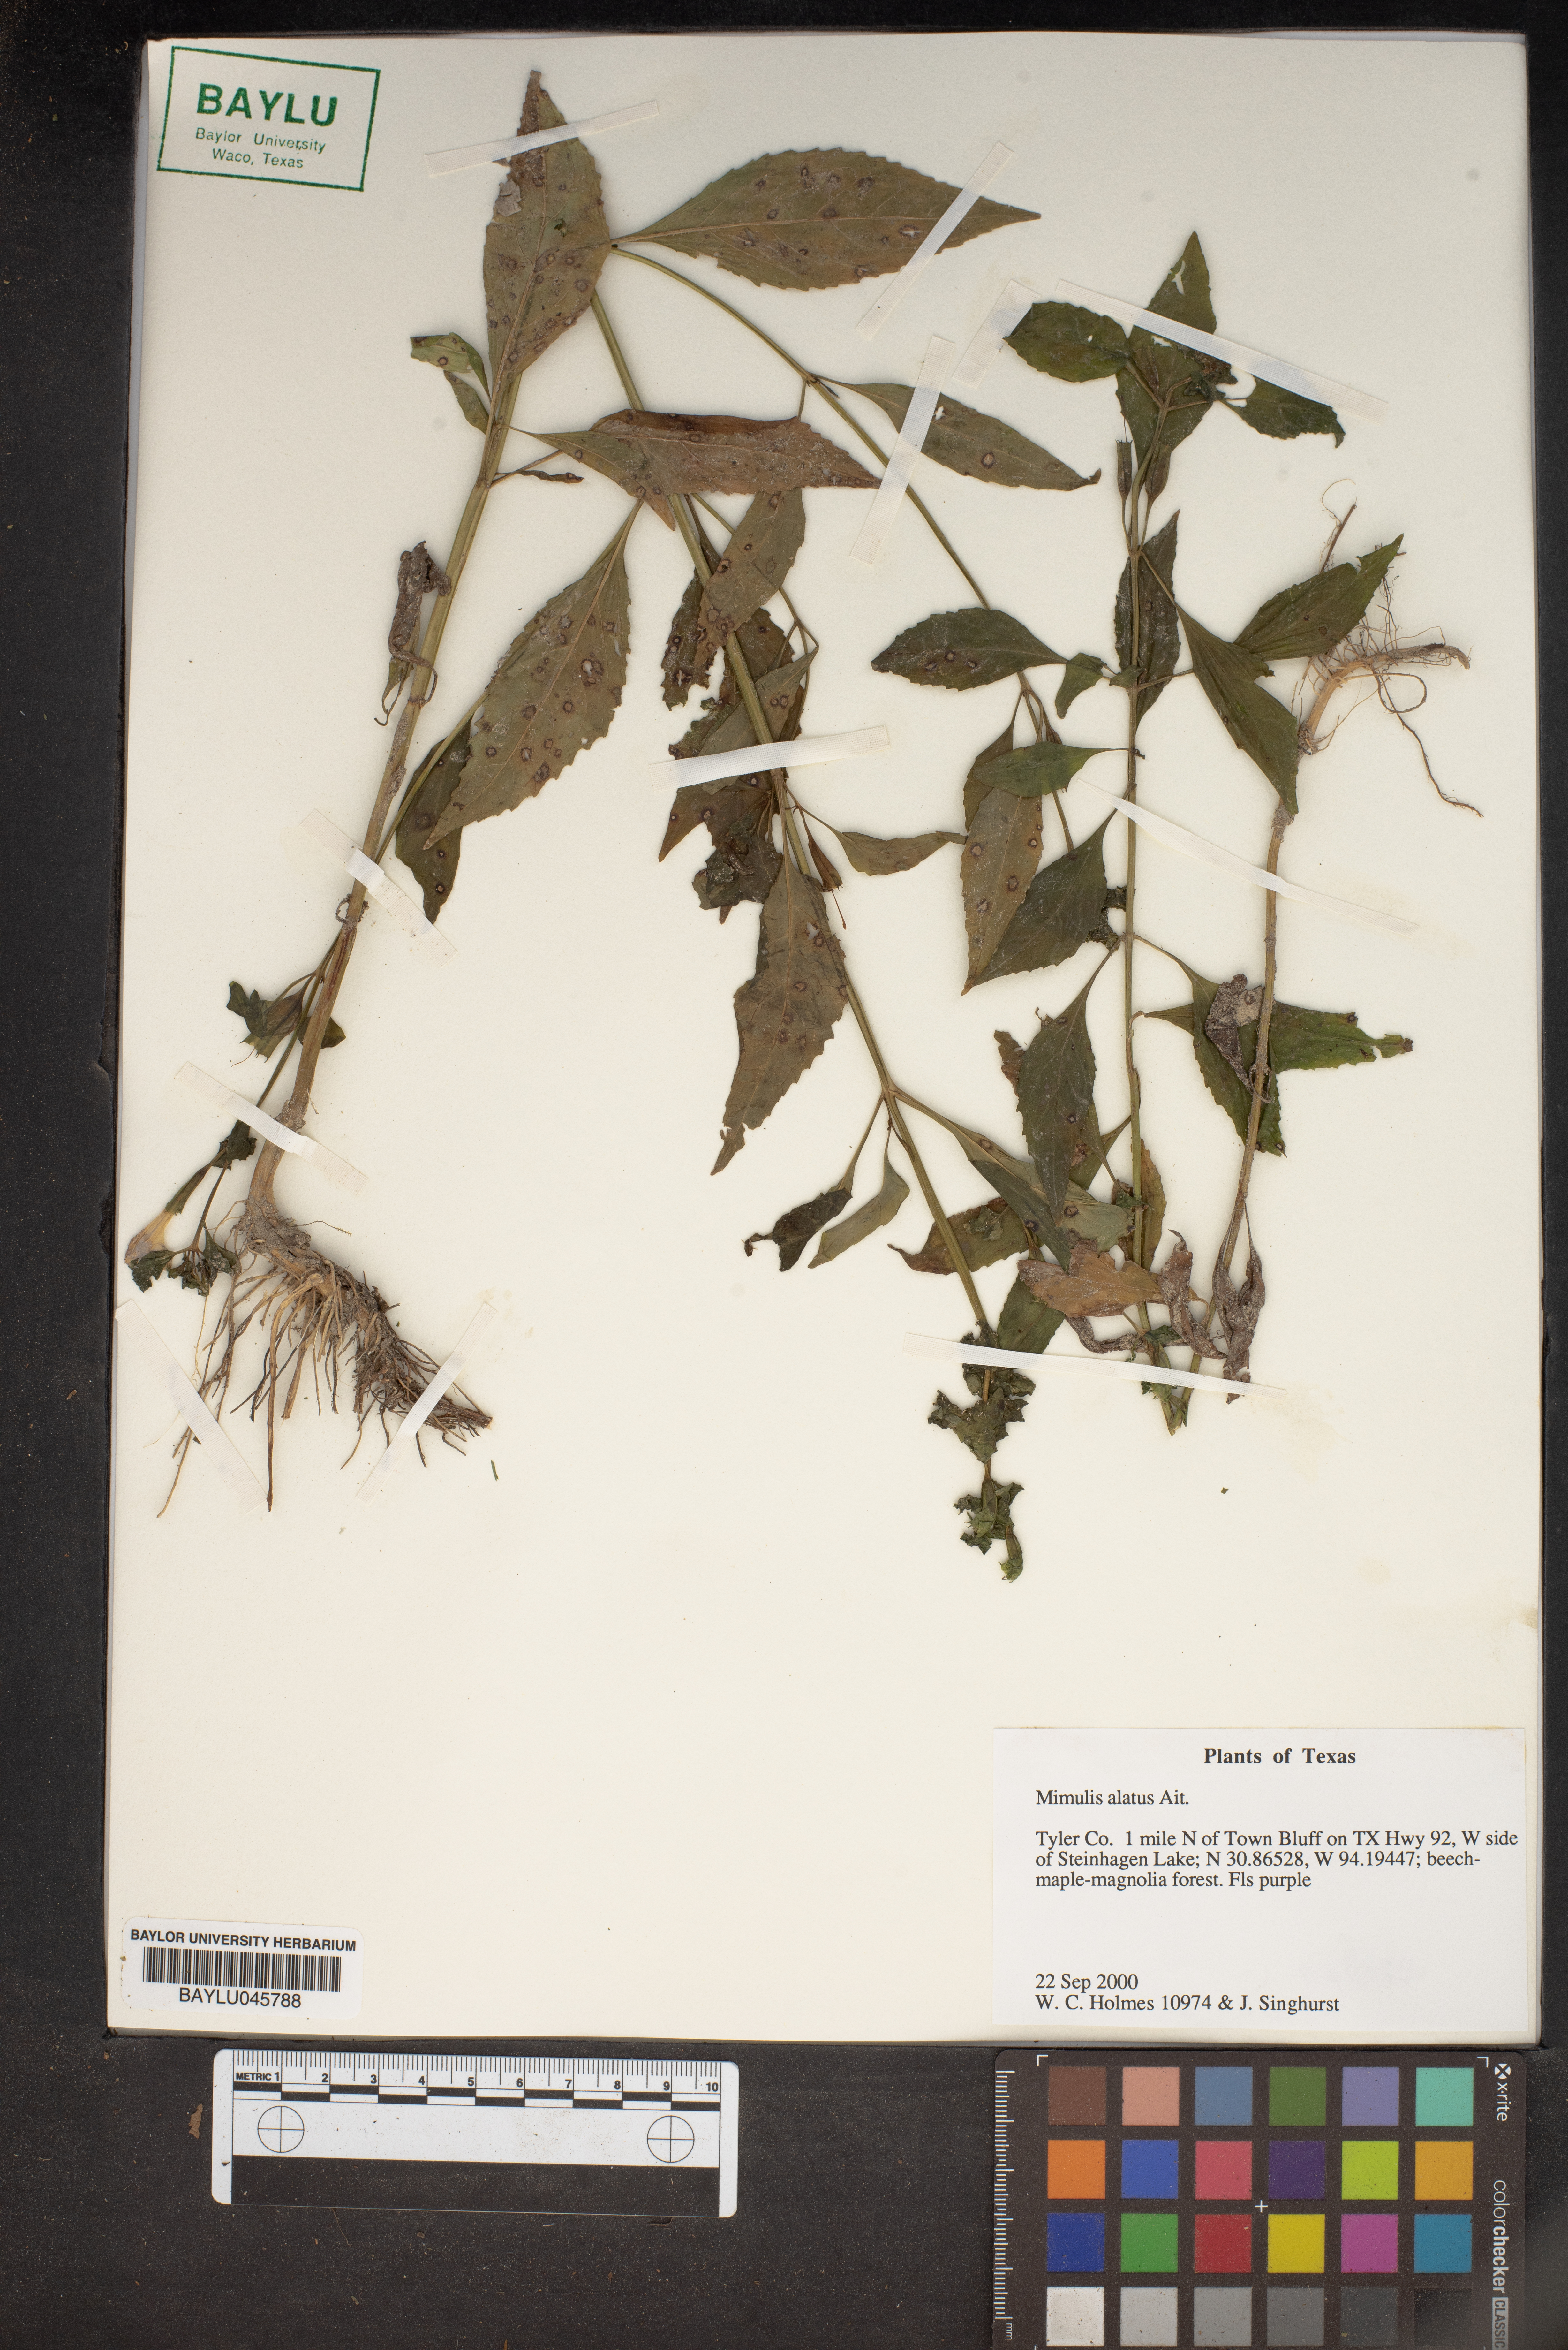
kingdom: Plantae
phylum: Tracheophyta
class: Magnoliopsida
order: Lamiales
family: Phrymaceae
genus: Mimulus
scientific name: Mimulus alatus
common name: Sharp-wing monkey-flower
